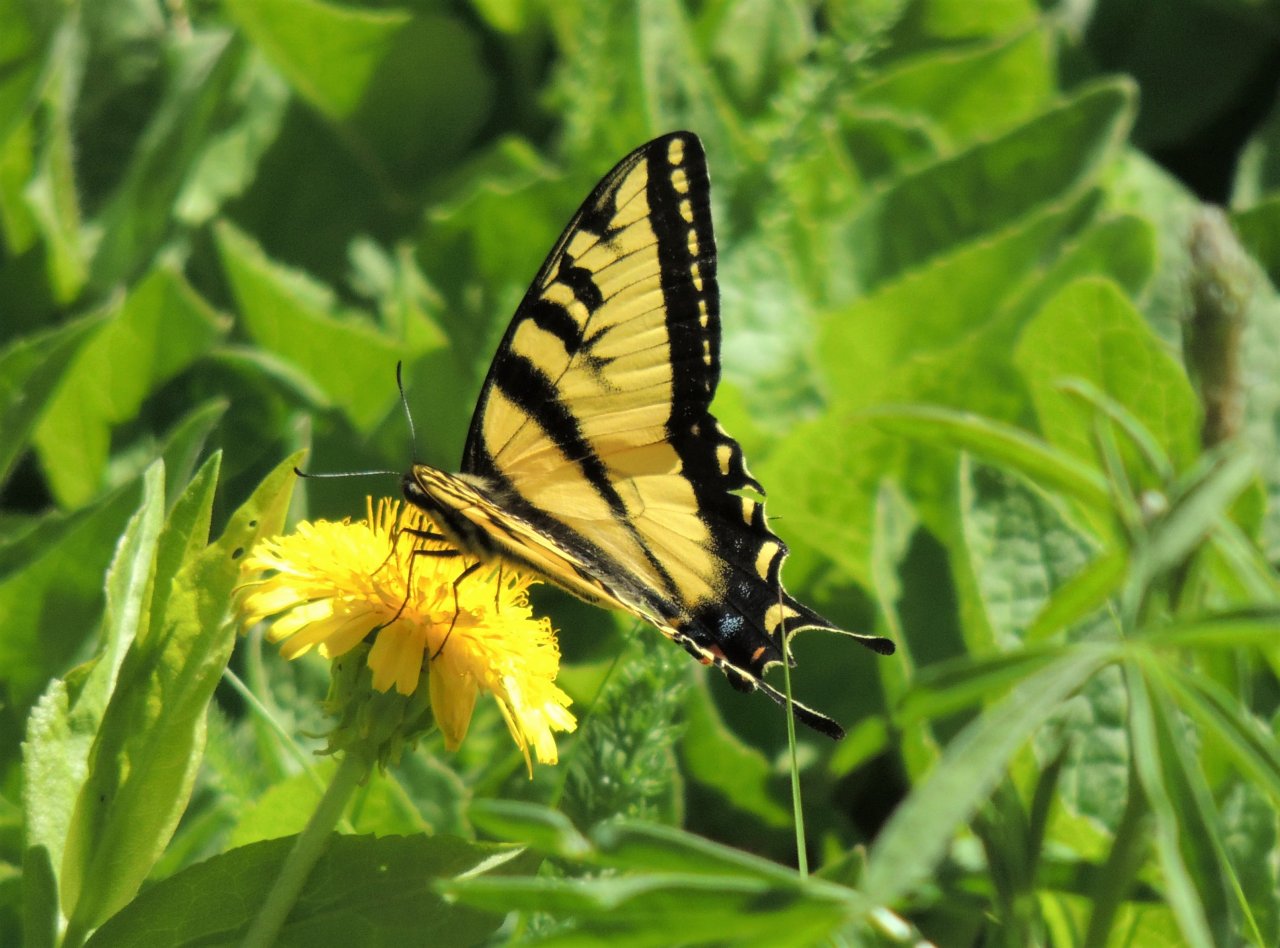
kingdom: Animalia
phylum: Arthropoda
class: Insecta
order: Lepidoptera
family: Papilionidae
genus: Pterourus
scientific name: Pterourus rutulus
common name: Western Tiger Swallowtail
